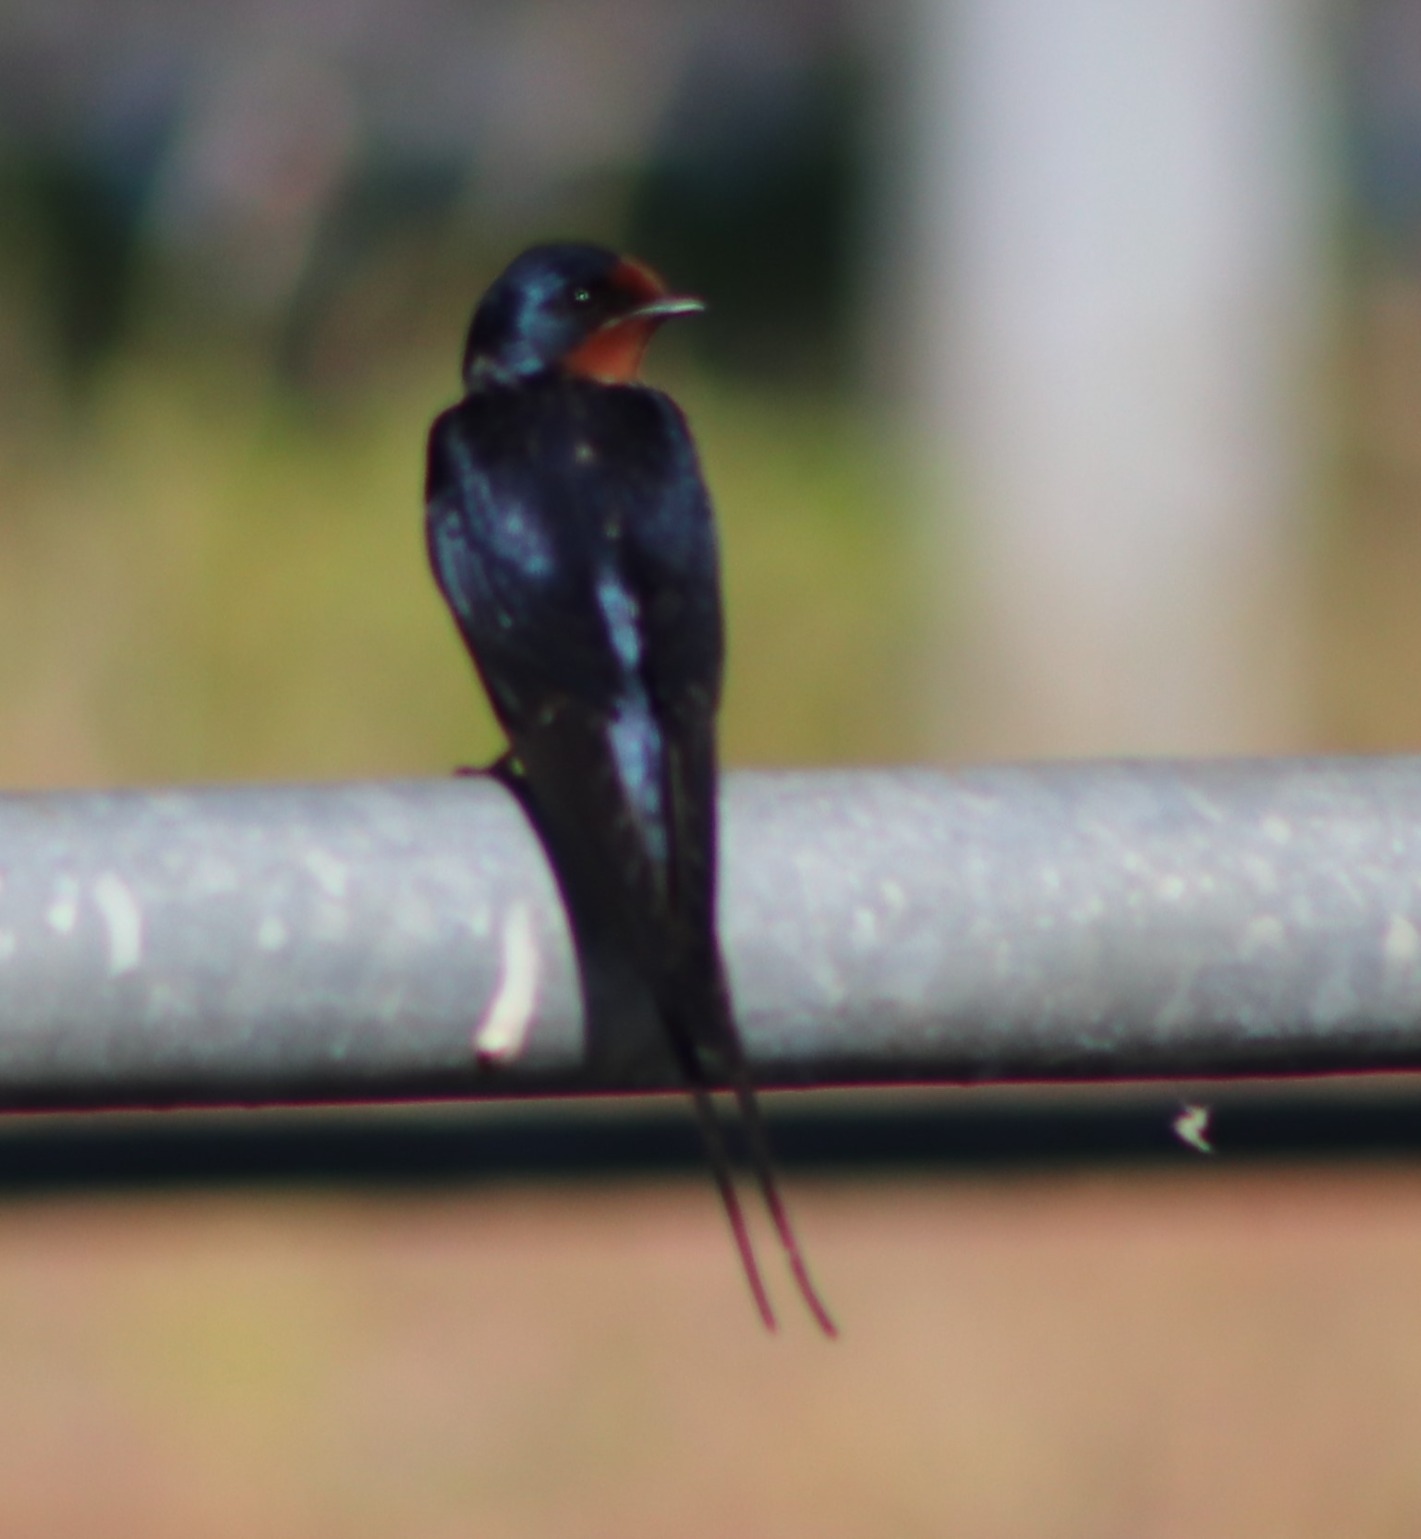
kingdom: Animalia
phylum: Chordata
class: Aves
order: Passeriformes
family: Hirundinidae
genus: Hirundo
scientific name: Hirundo rustica
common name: Landsvale
